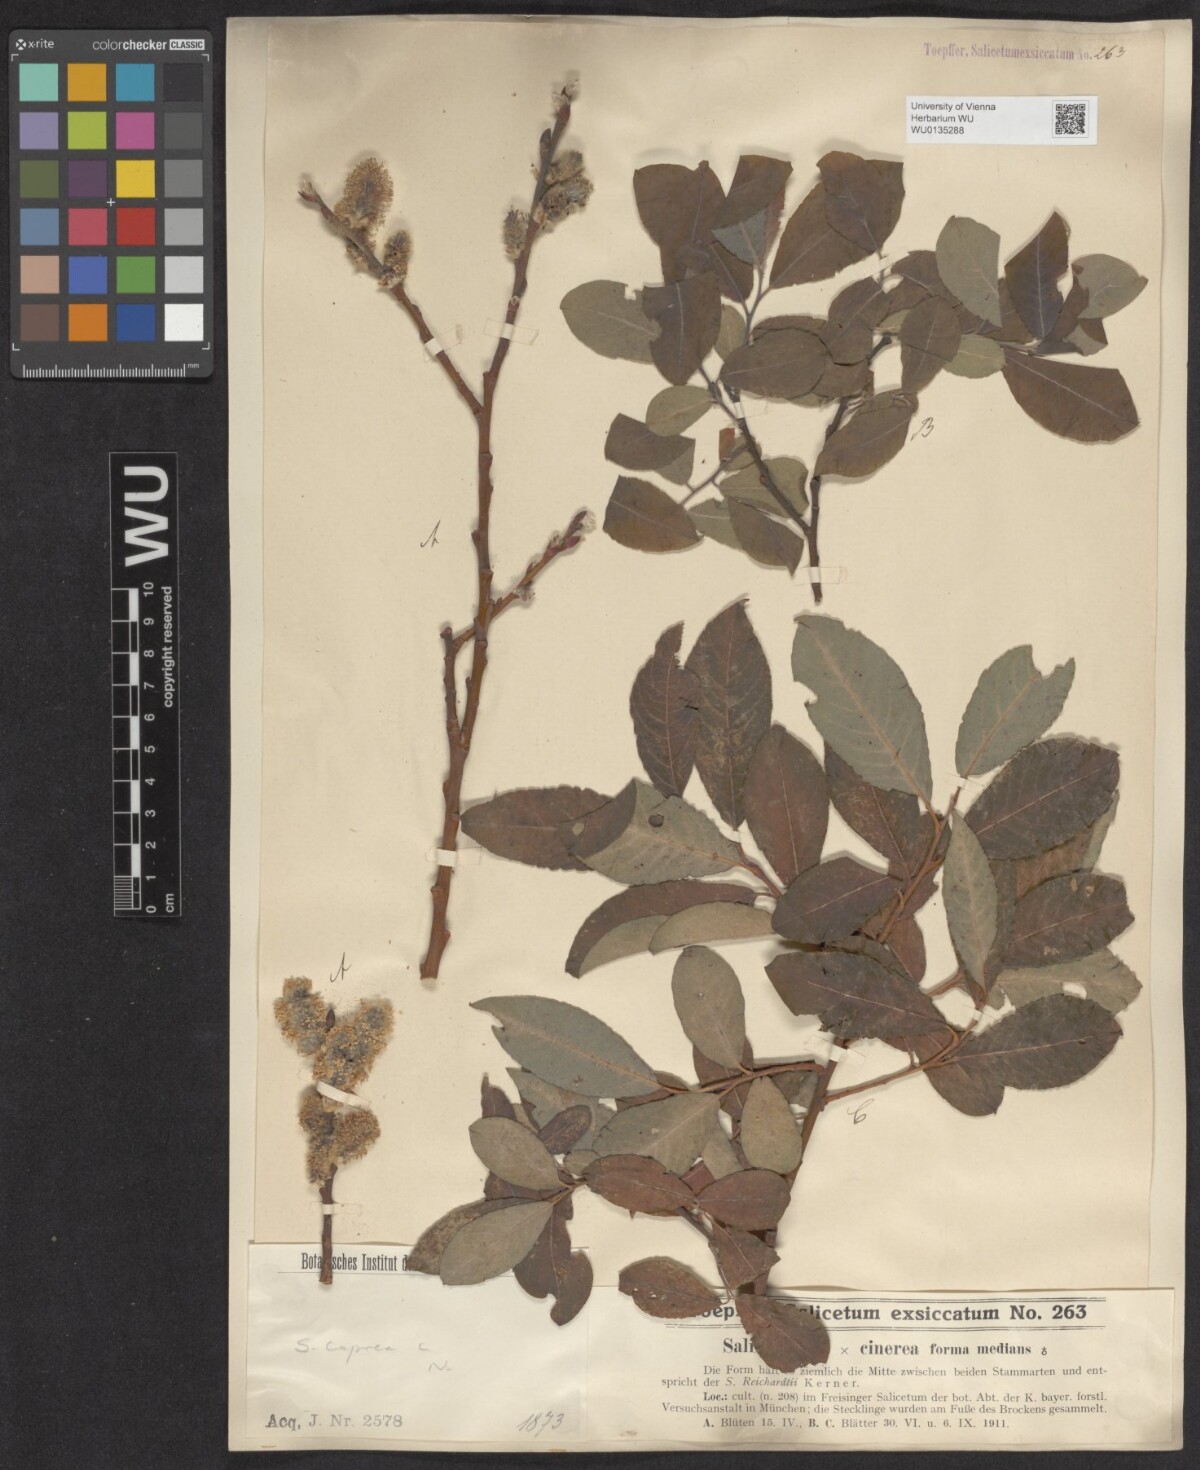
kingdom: Plantae
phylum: Tracheophyta
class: Magnoliopsida
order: Malpighiales
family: Salicaceae
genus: Salix
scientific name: Salix caprea
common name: Goat willow
